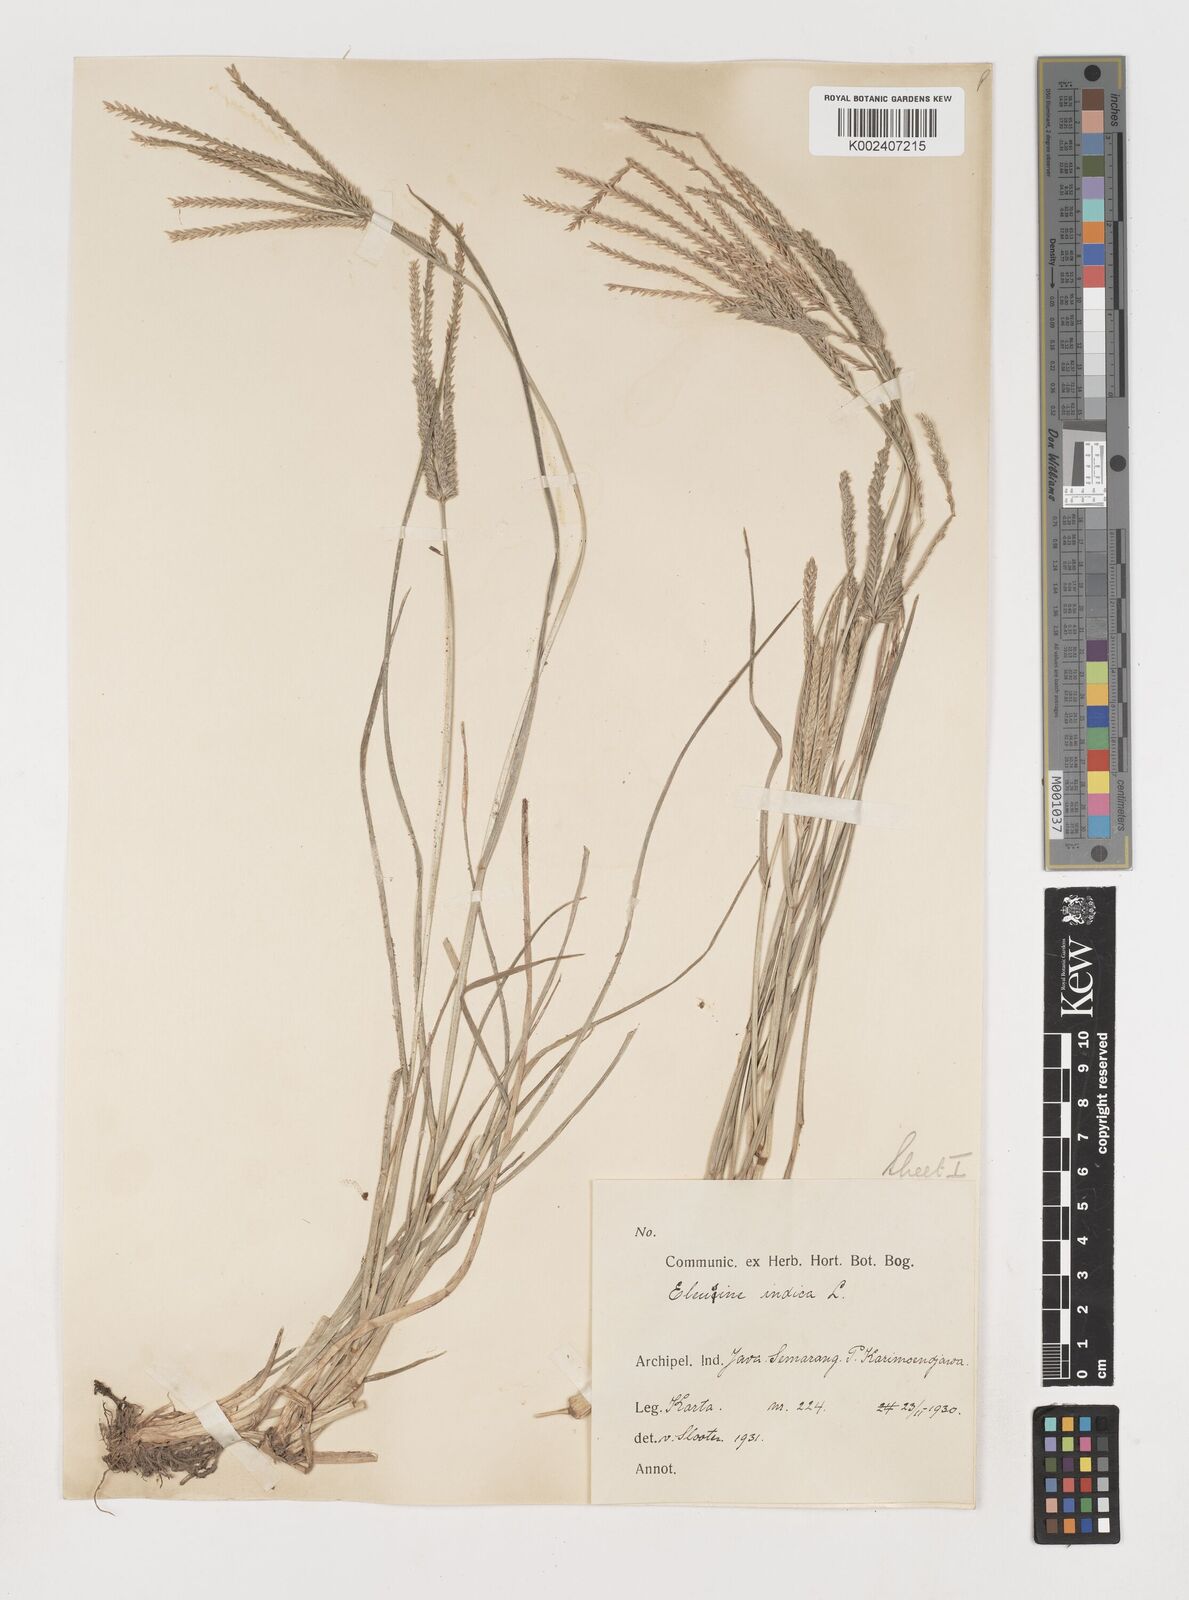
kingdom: Plantae
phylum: Tracheophyta
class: Liliopsida
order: Poales
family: Poaceae
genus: Eleusine
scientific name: Eleusine indica
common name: Yard-grass
